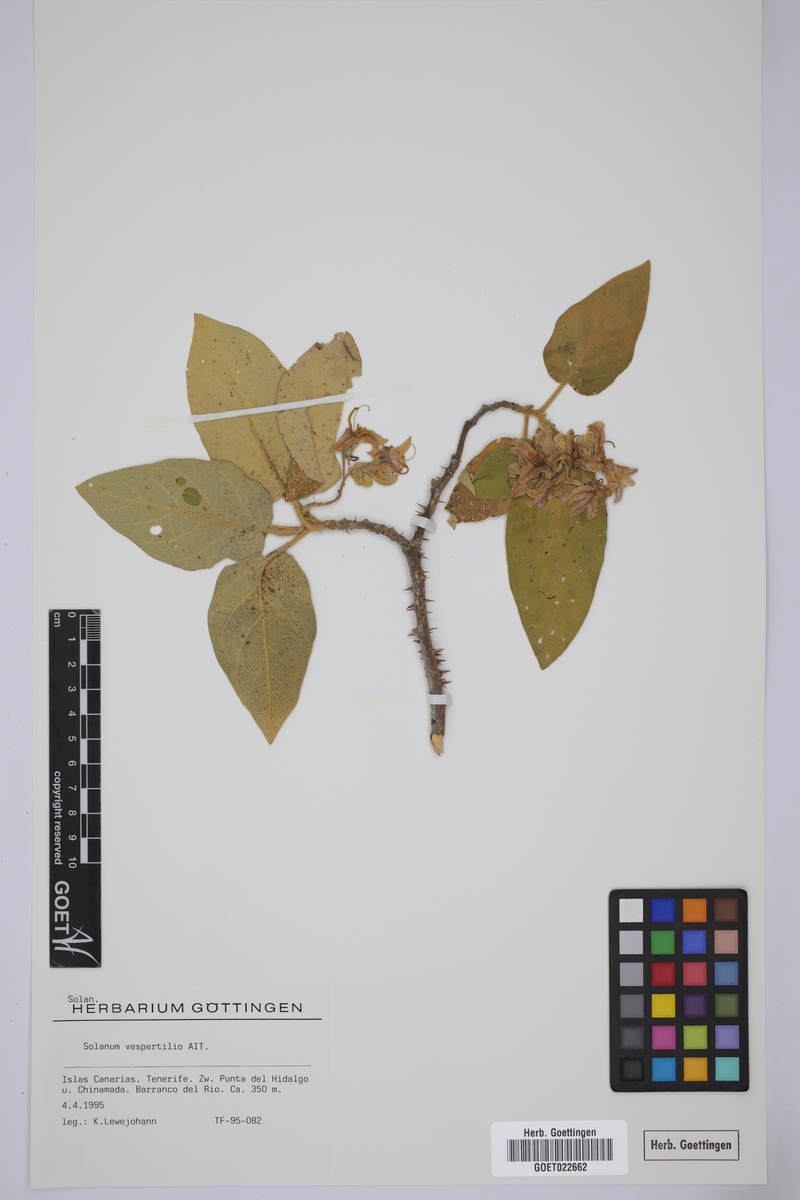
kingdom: Plantae
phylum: Tracheophyta
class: Magnoliopsida
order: Solanales
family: Solanaceae
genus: Solanum
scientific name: Solanum vespertilio
